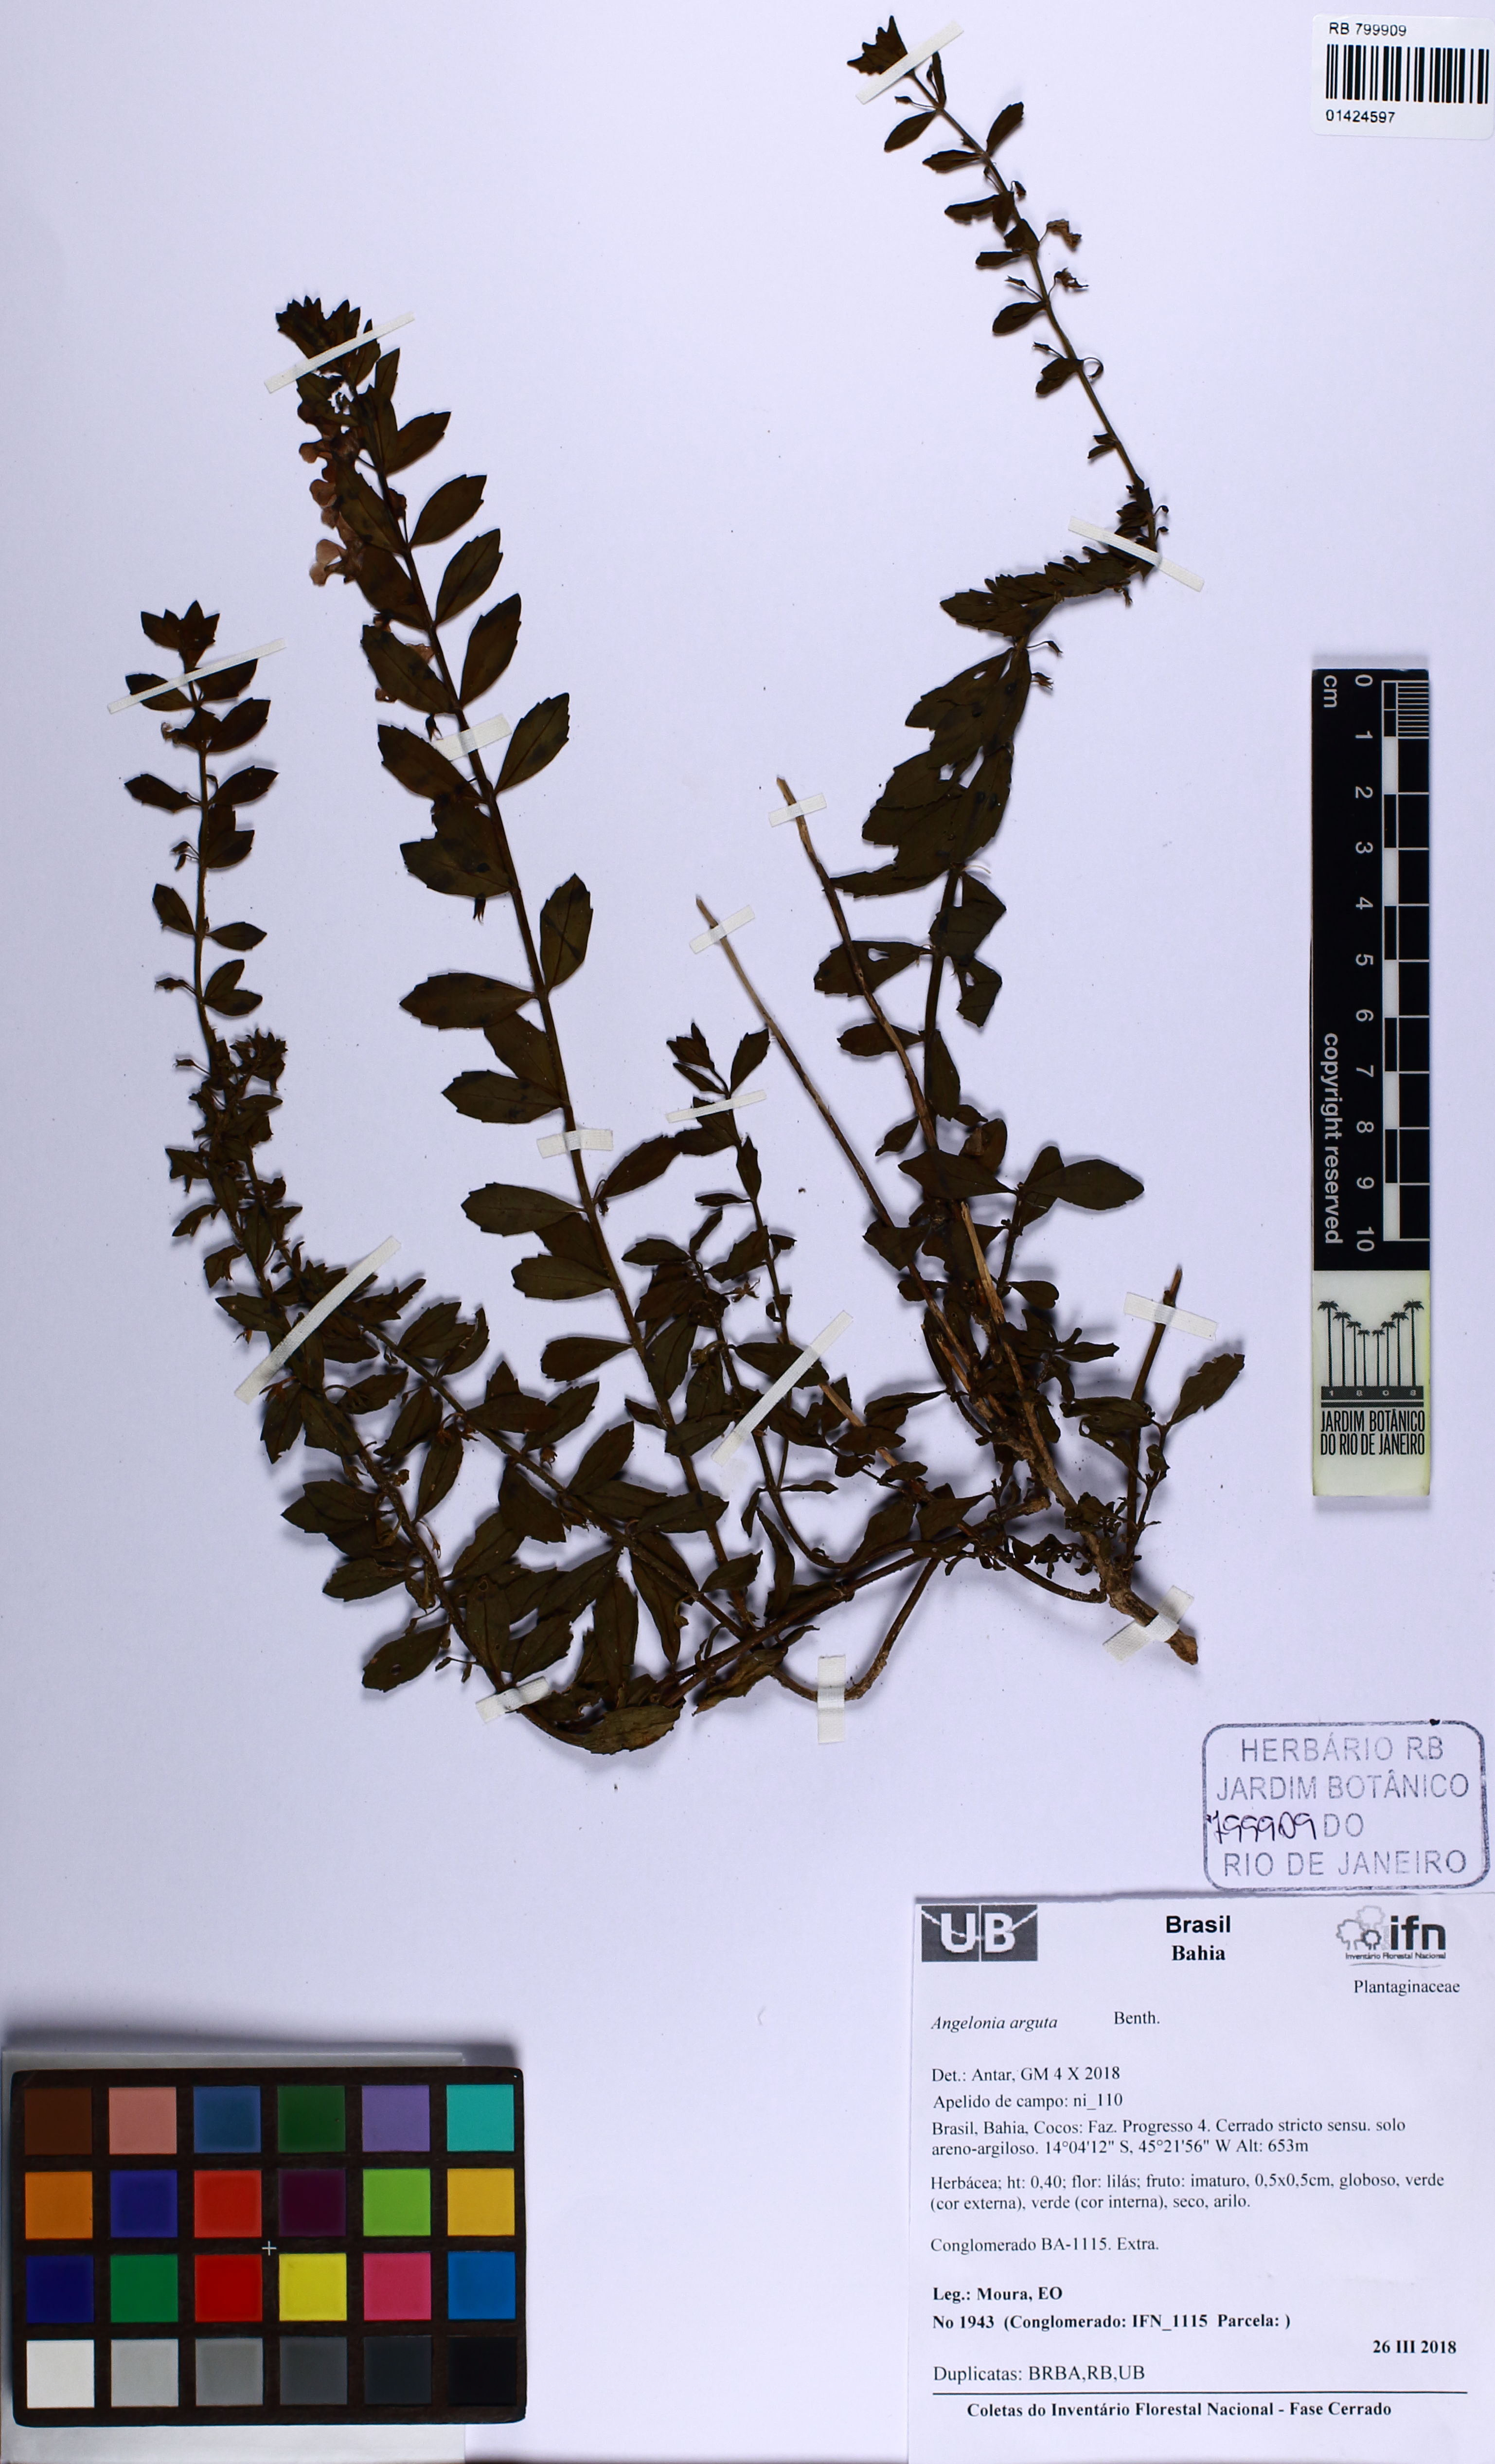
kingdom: Plantae
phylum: Tracheophyta
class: Magnoliopsida
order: Lamiales
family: Plantaginaceae
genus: Angelonia
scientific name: Angelonia arguta
